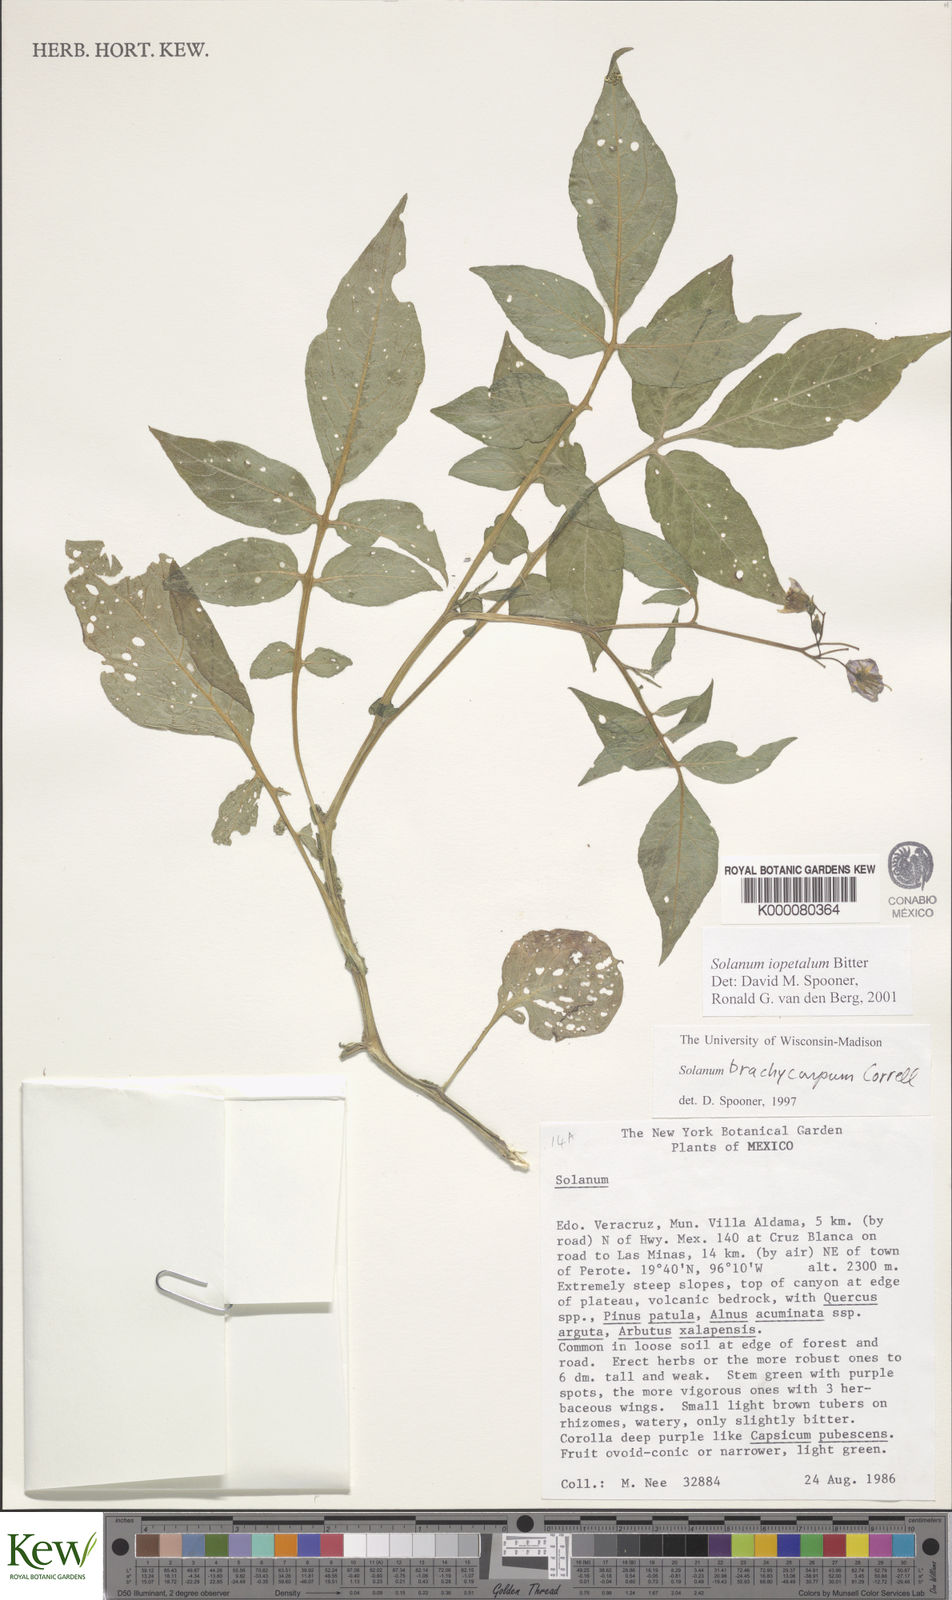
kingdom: Plantae
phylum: Tracheophyta
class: Magnoliopsida
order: Solanales
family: Solanaceae
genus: Solanum
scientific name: Solanum iopetalum
